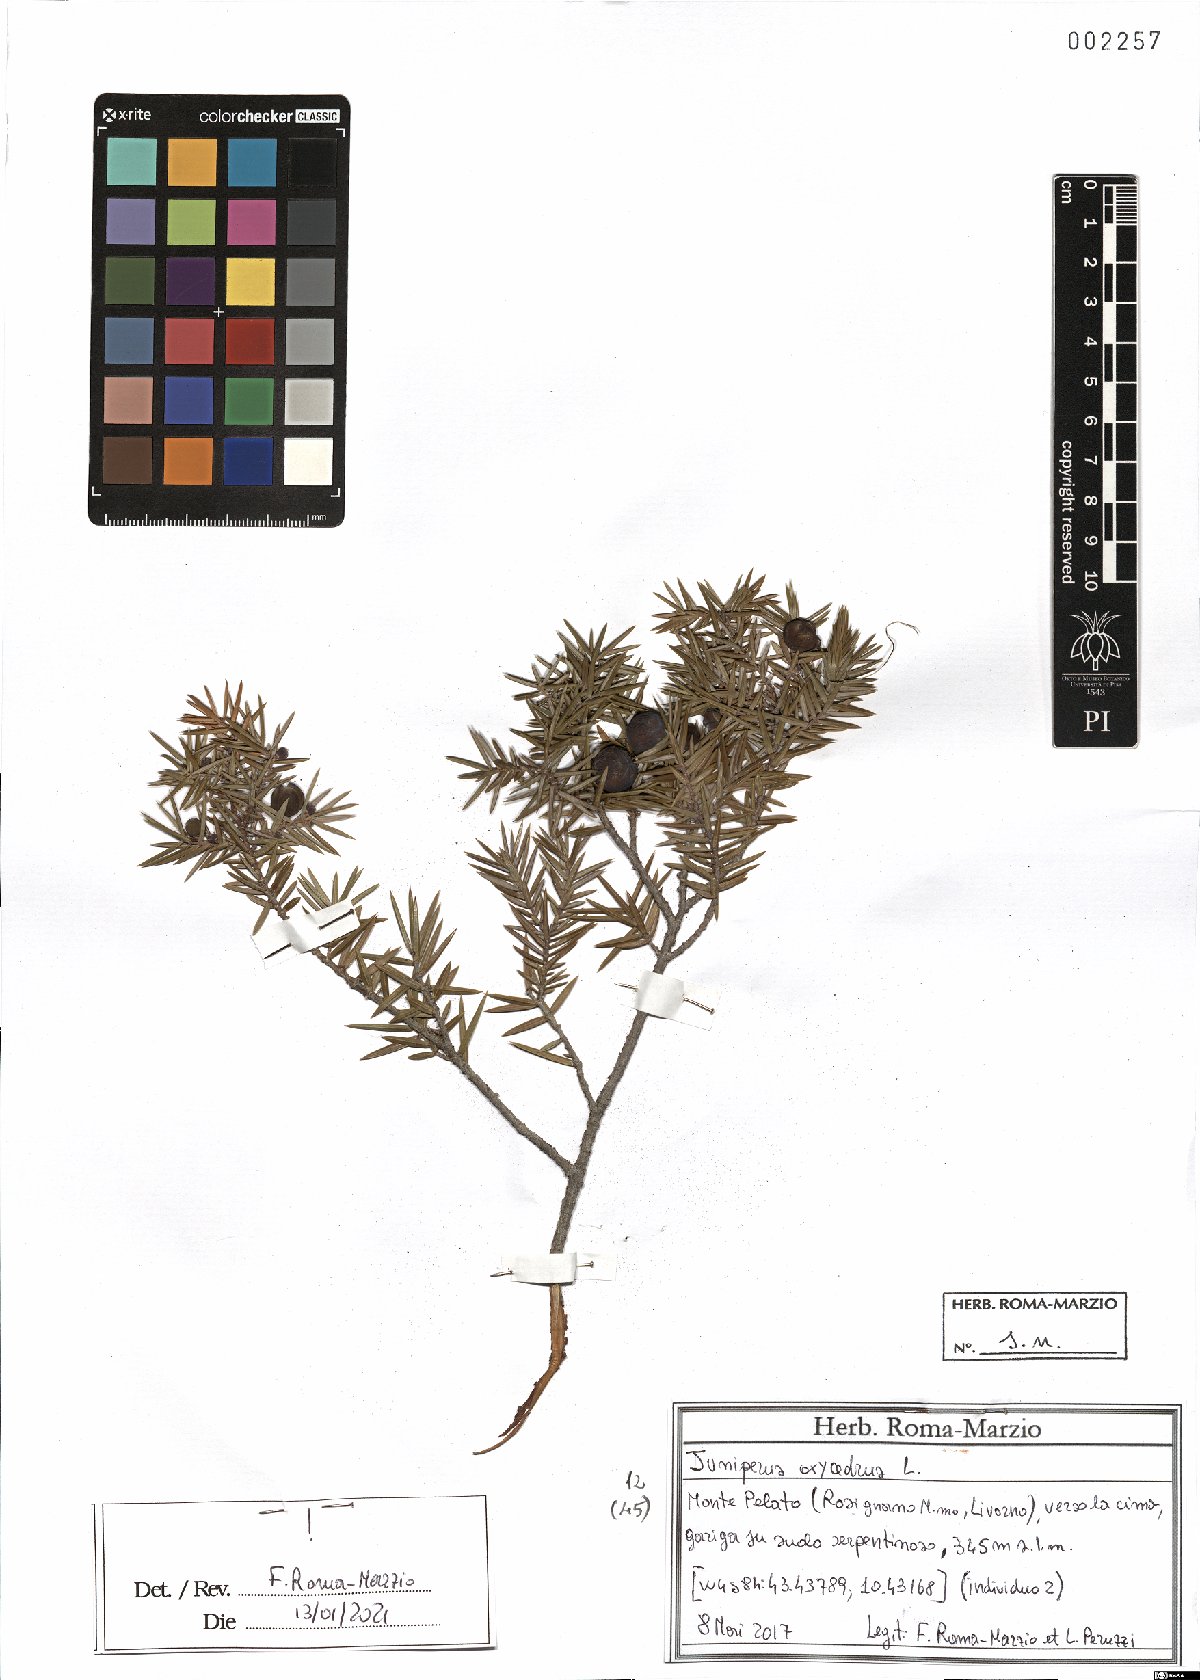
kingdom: Plantae
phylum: Tracheophyta
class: Pinopsida
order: Pinales
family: Cupressaceae
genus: Juniperus
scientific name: Juniperus oxycedrus
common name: Prickly juniper
